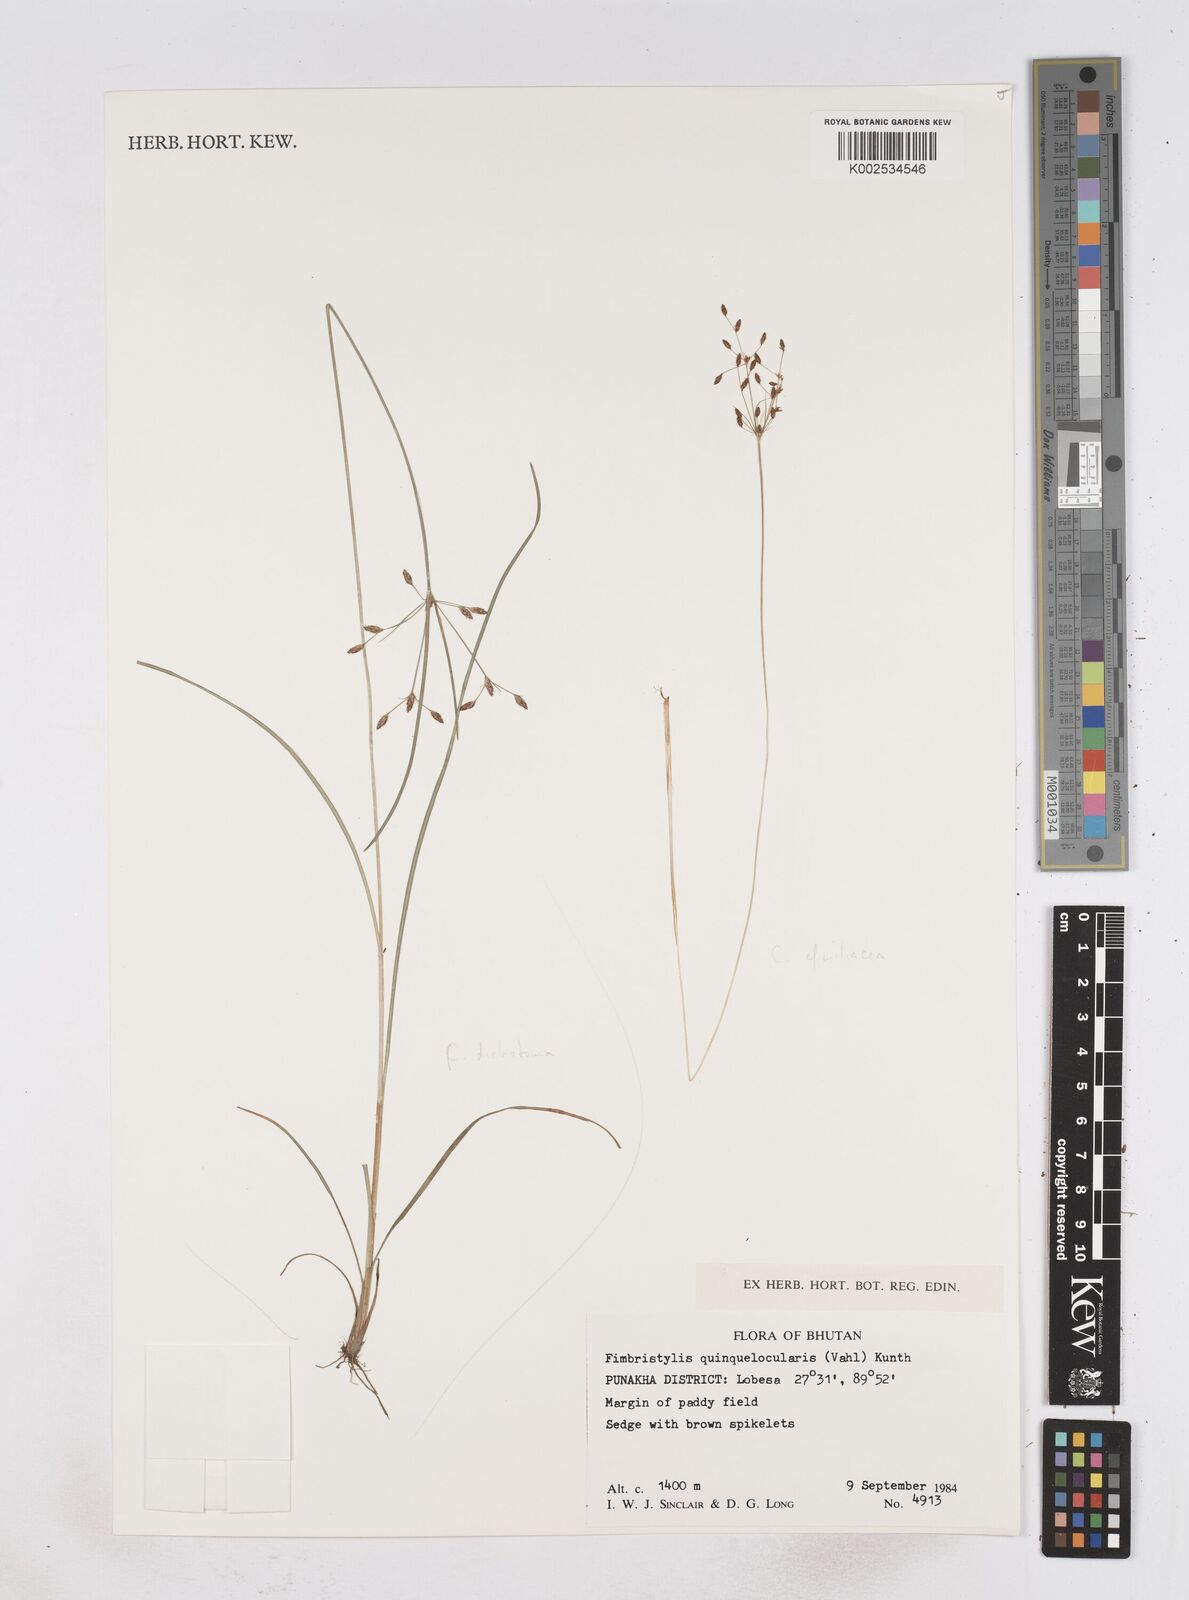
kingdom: Plantae
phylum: Tracheophyta
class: Liliopsida
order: Poales
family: Cyperaceae
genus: Fimbristylis
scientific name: Fimbristylis quinquangularis
